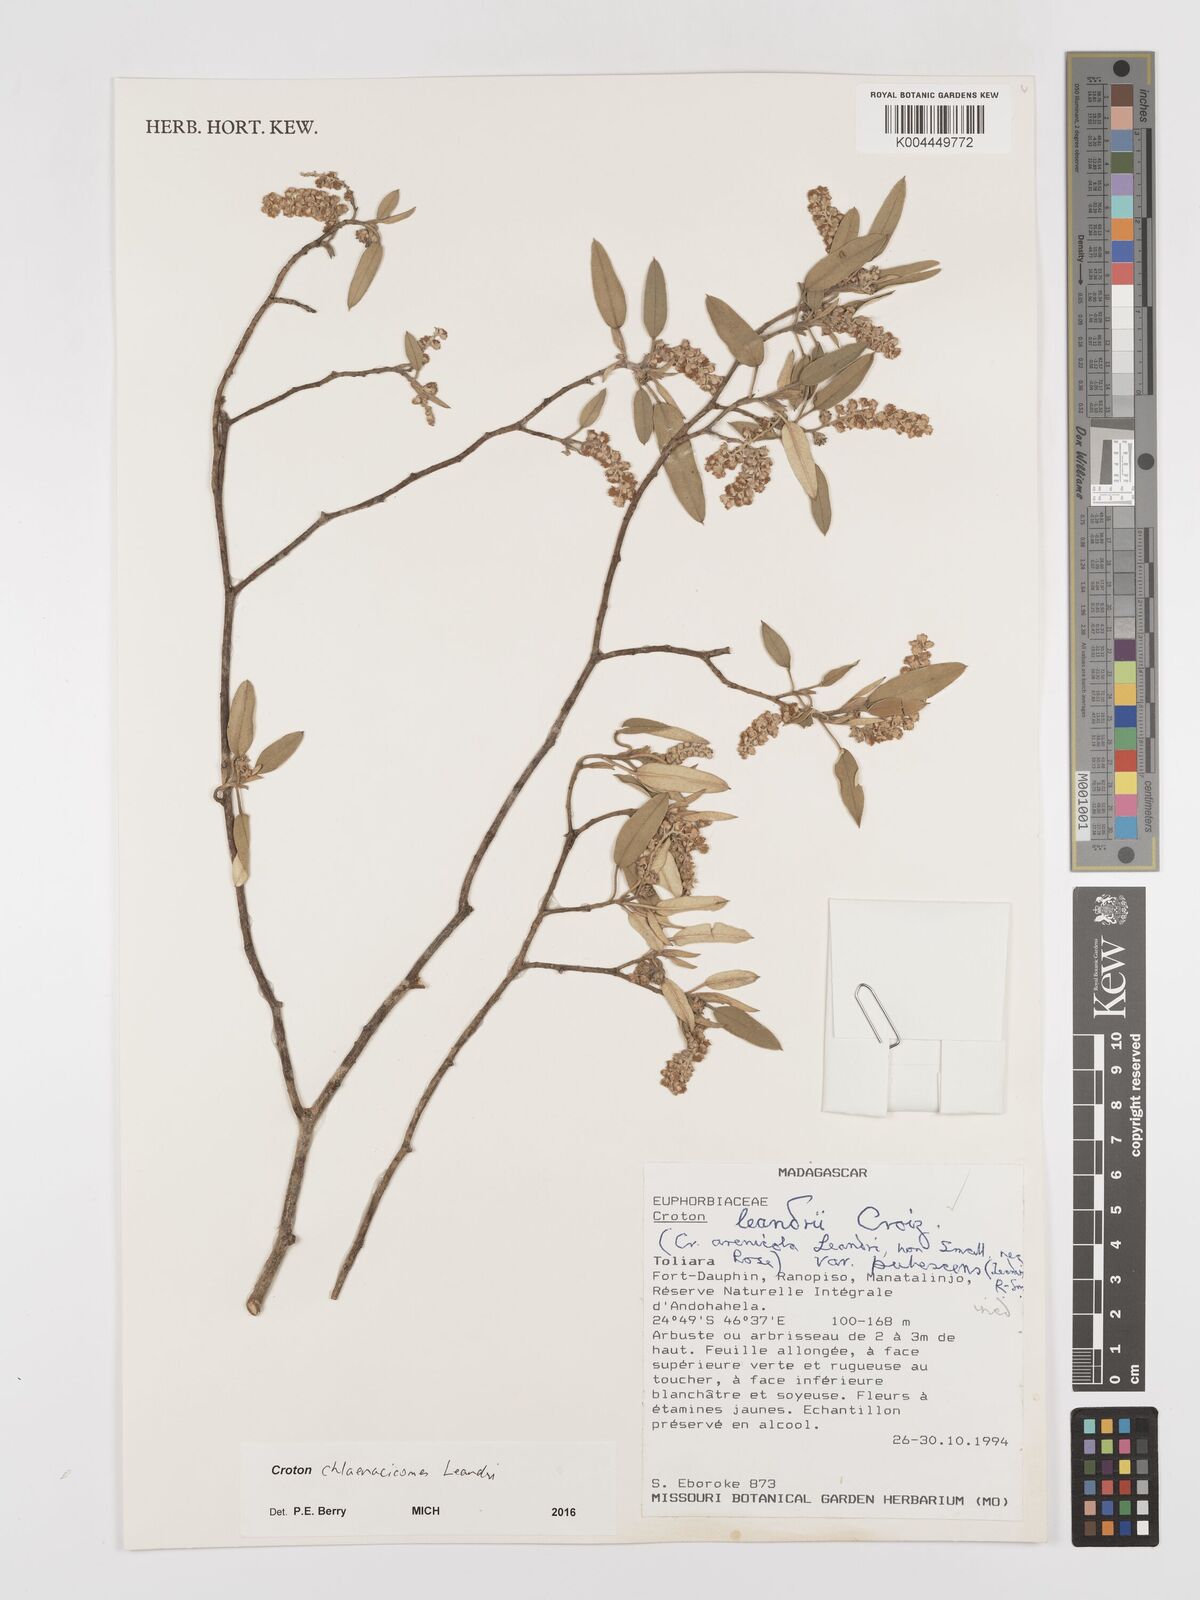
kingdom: Plantae
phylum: Tracheophyta
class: Magnoliopsida
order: Malpighiales
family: Euphorbiaceae
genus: Croton
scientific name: Croton chlaenacicomes
